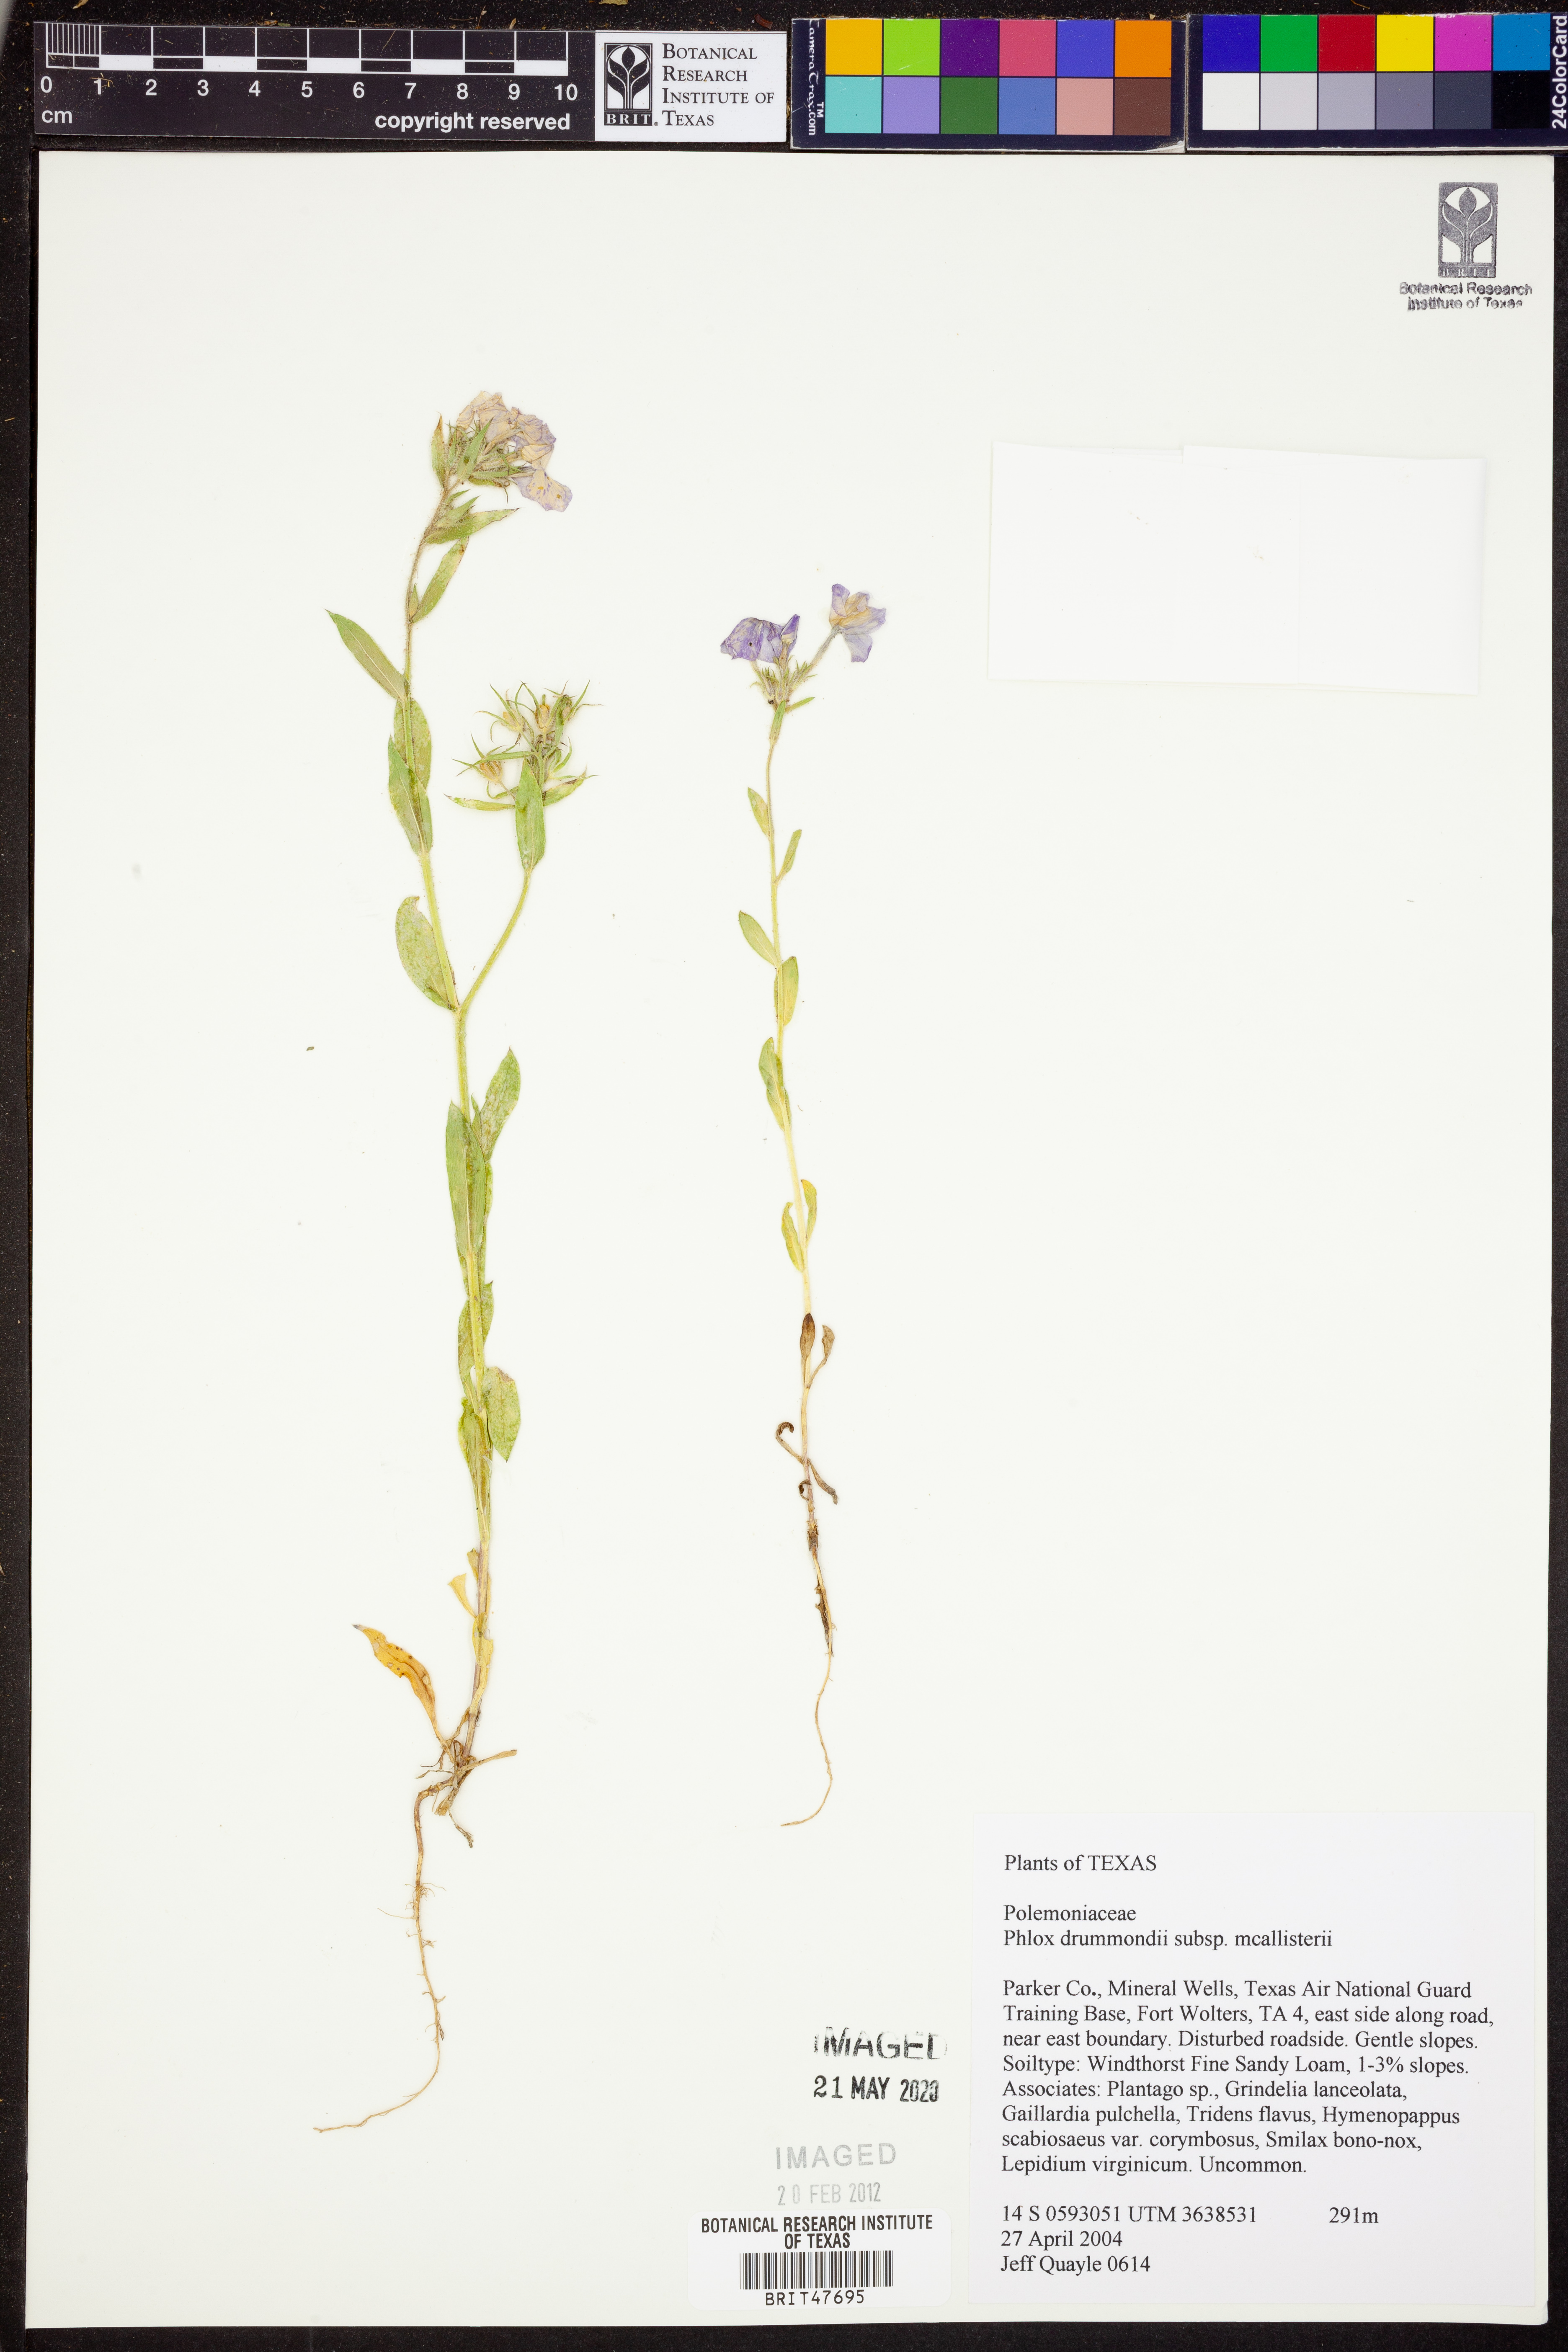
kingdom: Plantae
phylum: Tracheophyta
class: Magnoliopsida
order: Ericales
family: Polemoniaceae
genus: Phlox
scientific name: Phlox drummondii
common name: Drummond's phlox
